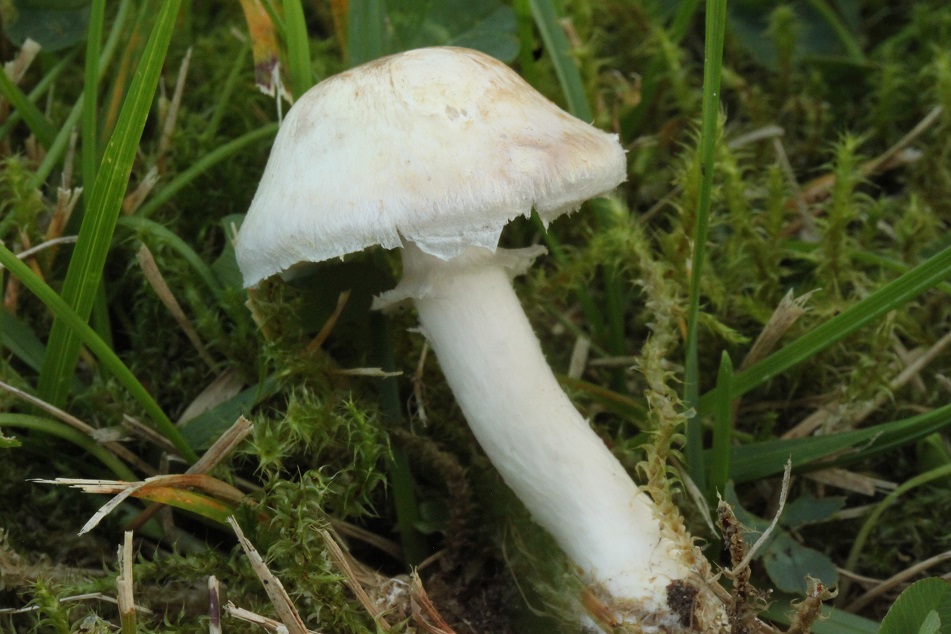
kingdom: Fungi
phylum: Basidiomycota
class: Agaricomycetes
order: Agaricales
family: Agaricaceae
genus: Agaricus
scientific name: Agaricus dulcidulus
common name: blegrød champignon
